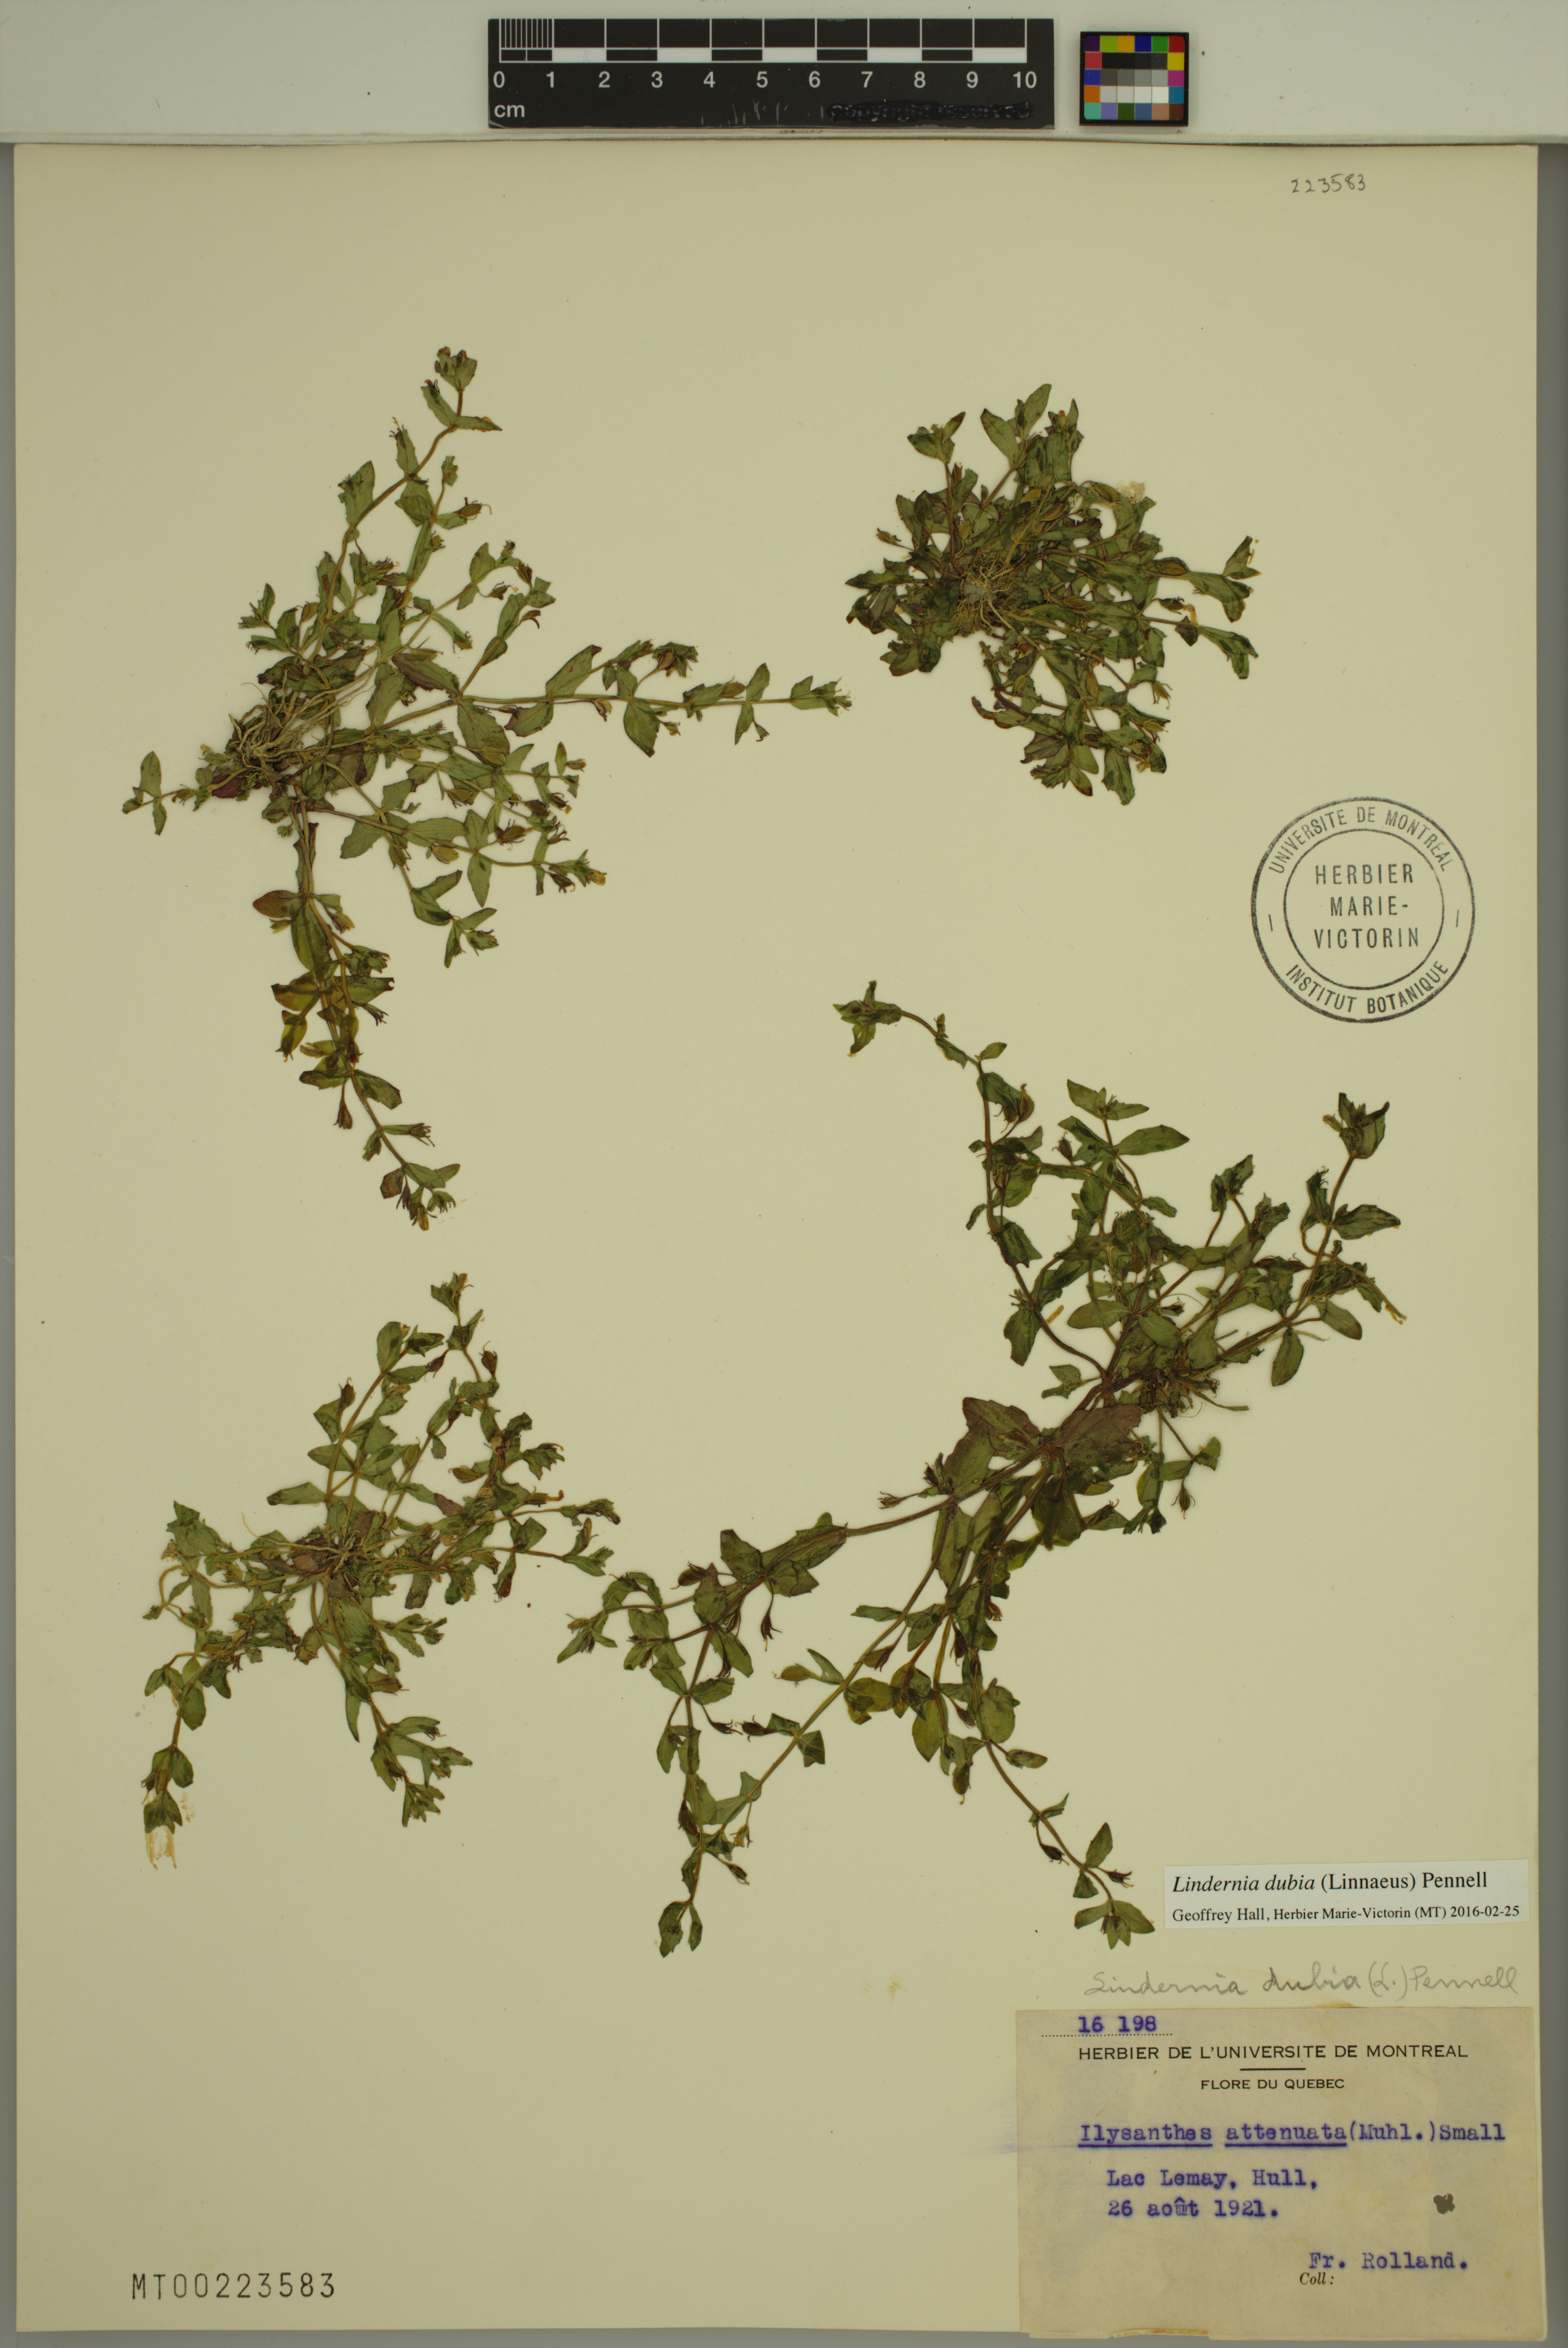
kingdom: Plantae
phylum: Tracheophyta
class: Magnoliopsida
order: Lamiales
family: Linderniaceae
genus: Lindernia
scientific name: Lindernia dubia
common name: Annual false pimpernel
